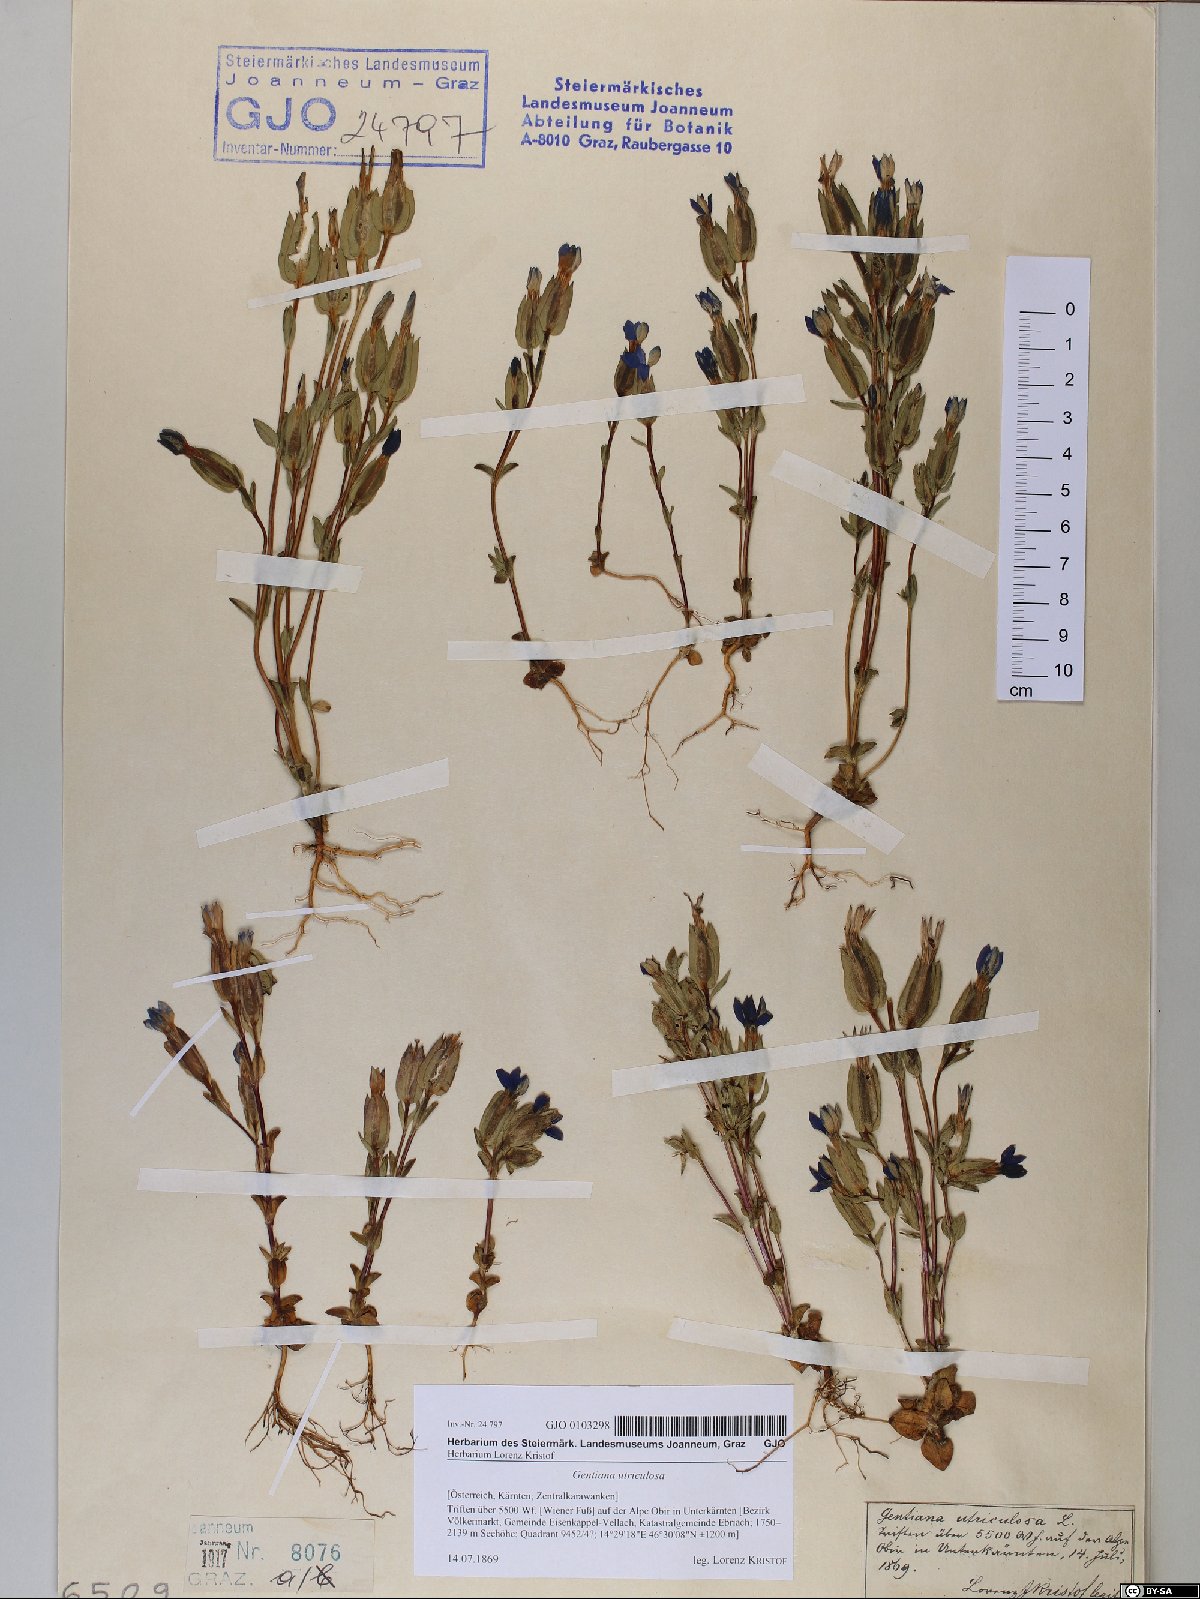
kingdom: Plantae
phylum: Tracheophyta
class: Magnoliopsida
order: Gentianales
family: Gentianaceae
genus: Gentiana
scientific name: Gentiana utriculosa
